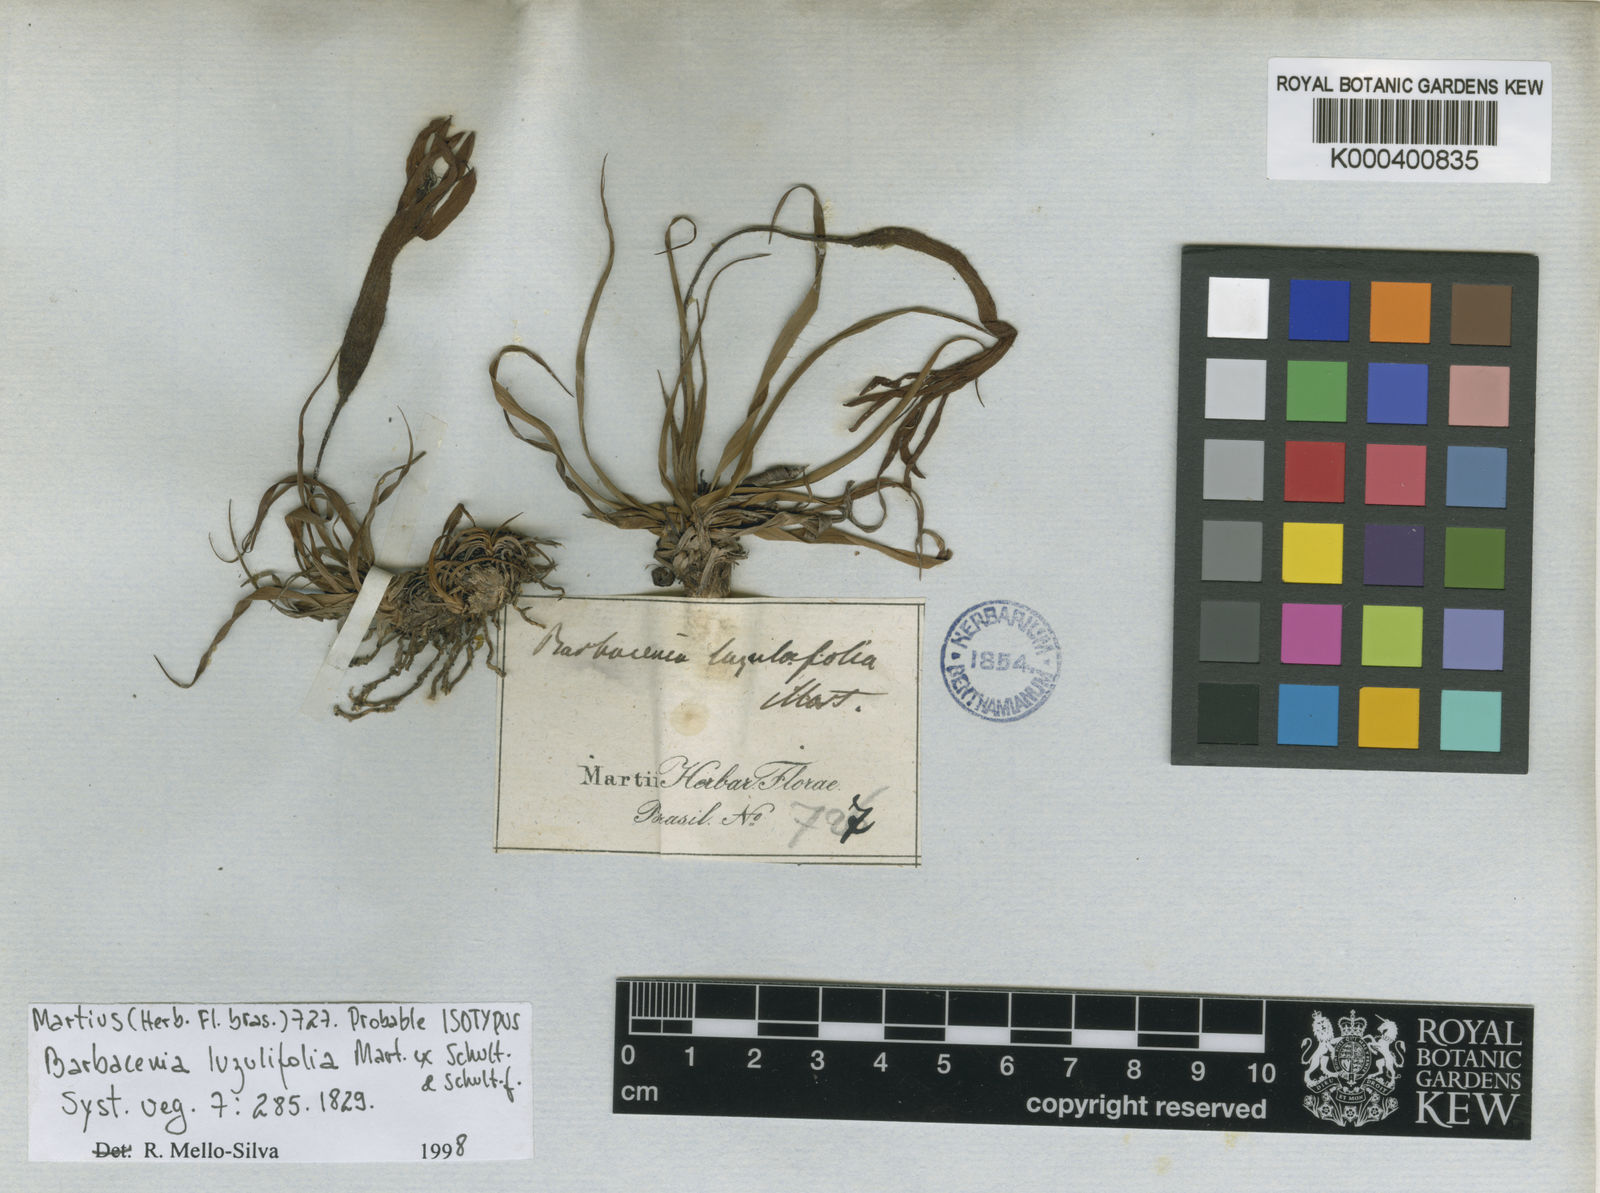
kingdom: Plantae
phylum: Tracheophyta
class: Liliopsida
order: Pandanales
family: Velloziaceae
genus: Barbacenia
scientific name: Barbacenia luzulifolia
